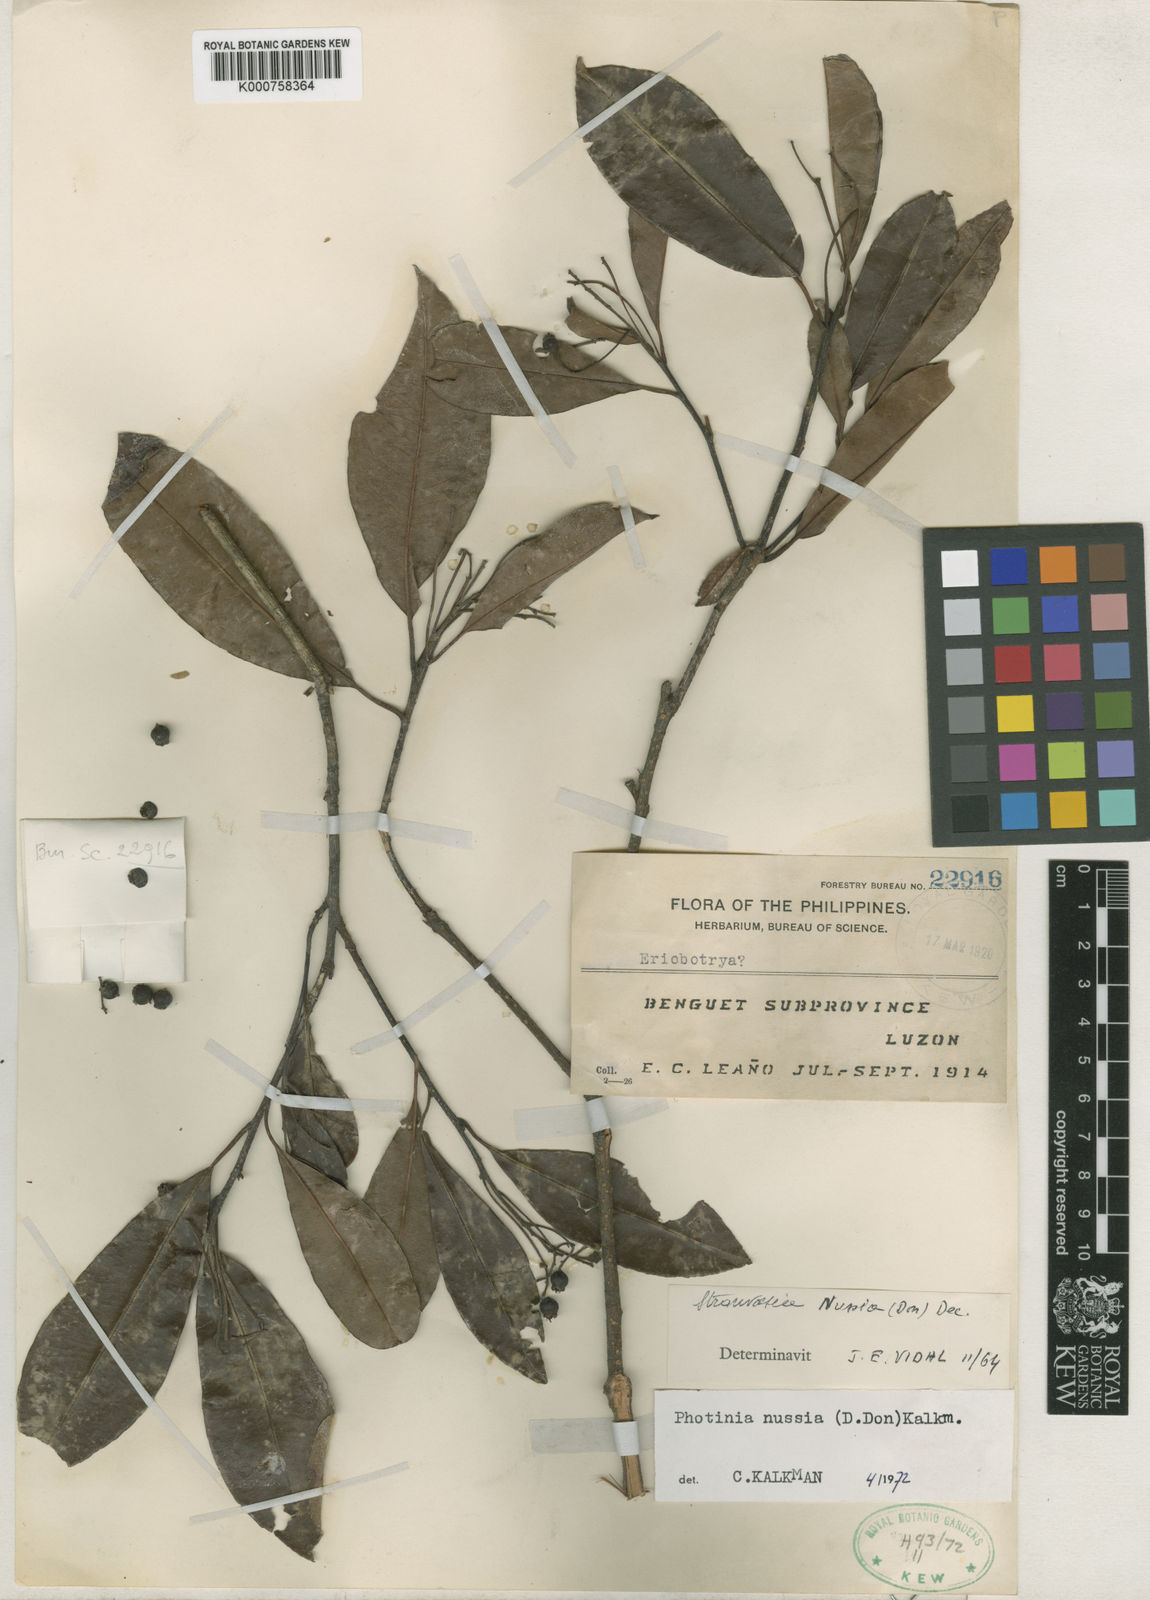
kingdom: Plantae
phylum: Tracheophyta
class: Magnoliopsida
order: Rosales
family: Rosaceae
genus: Stranvaesia
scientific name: Stranvaesia nussia
